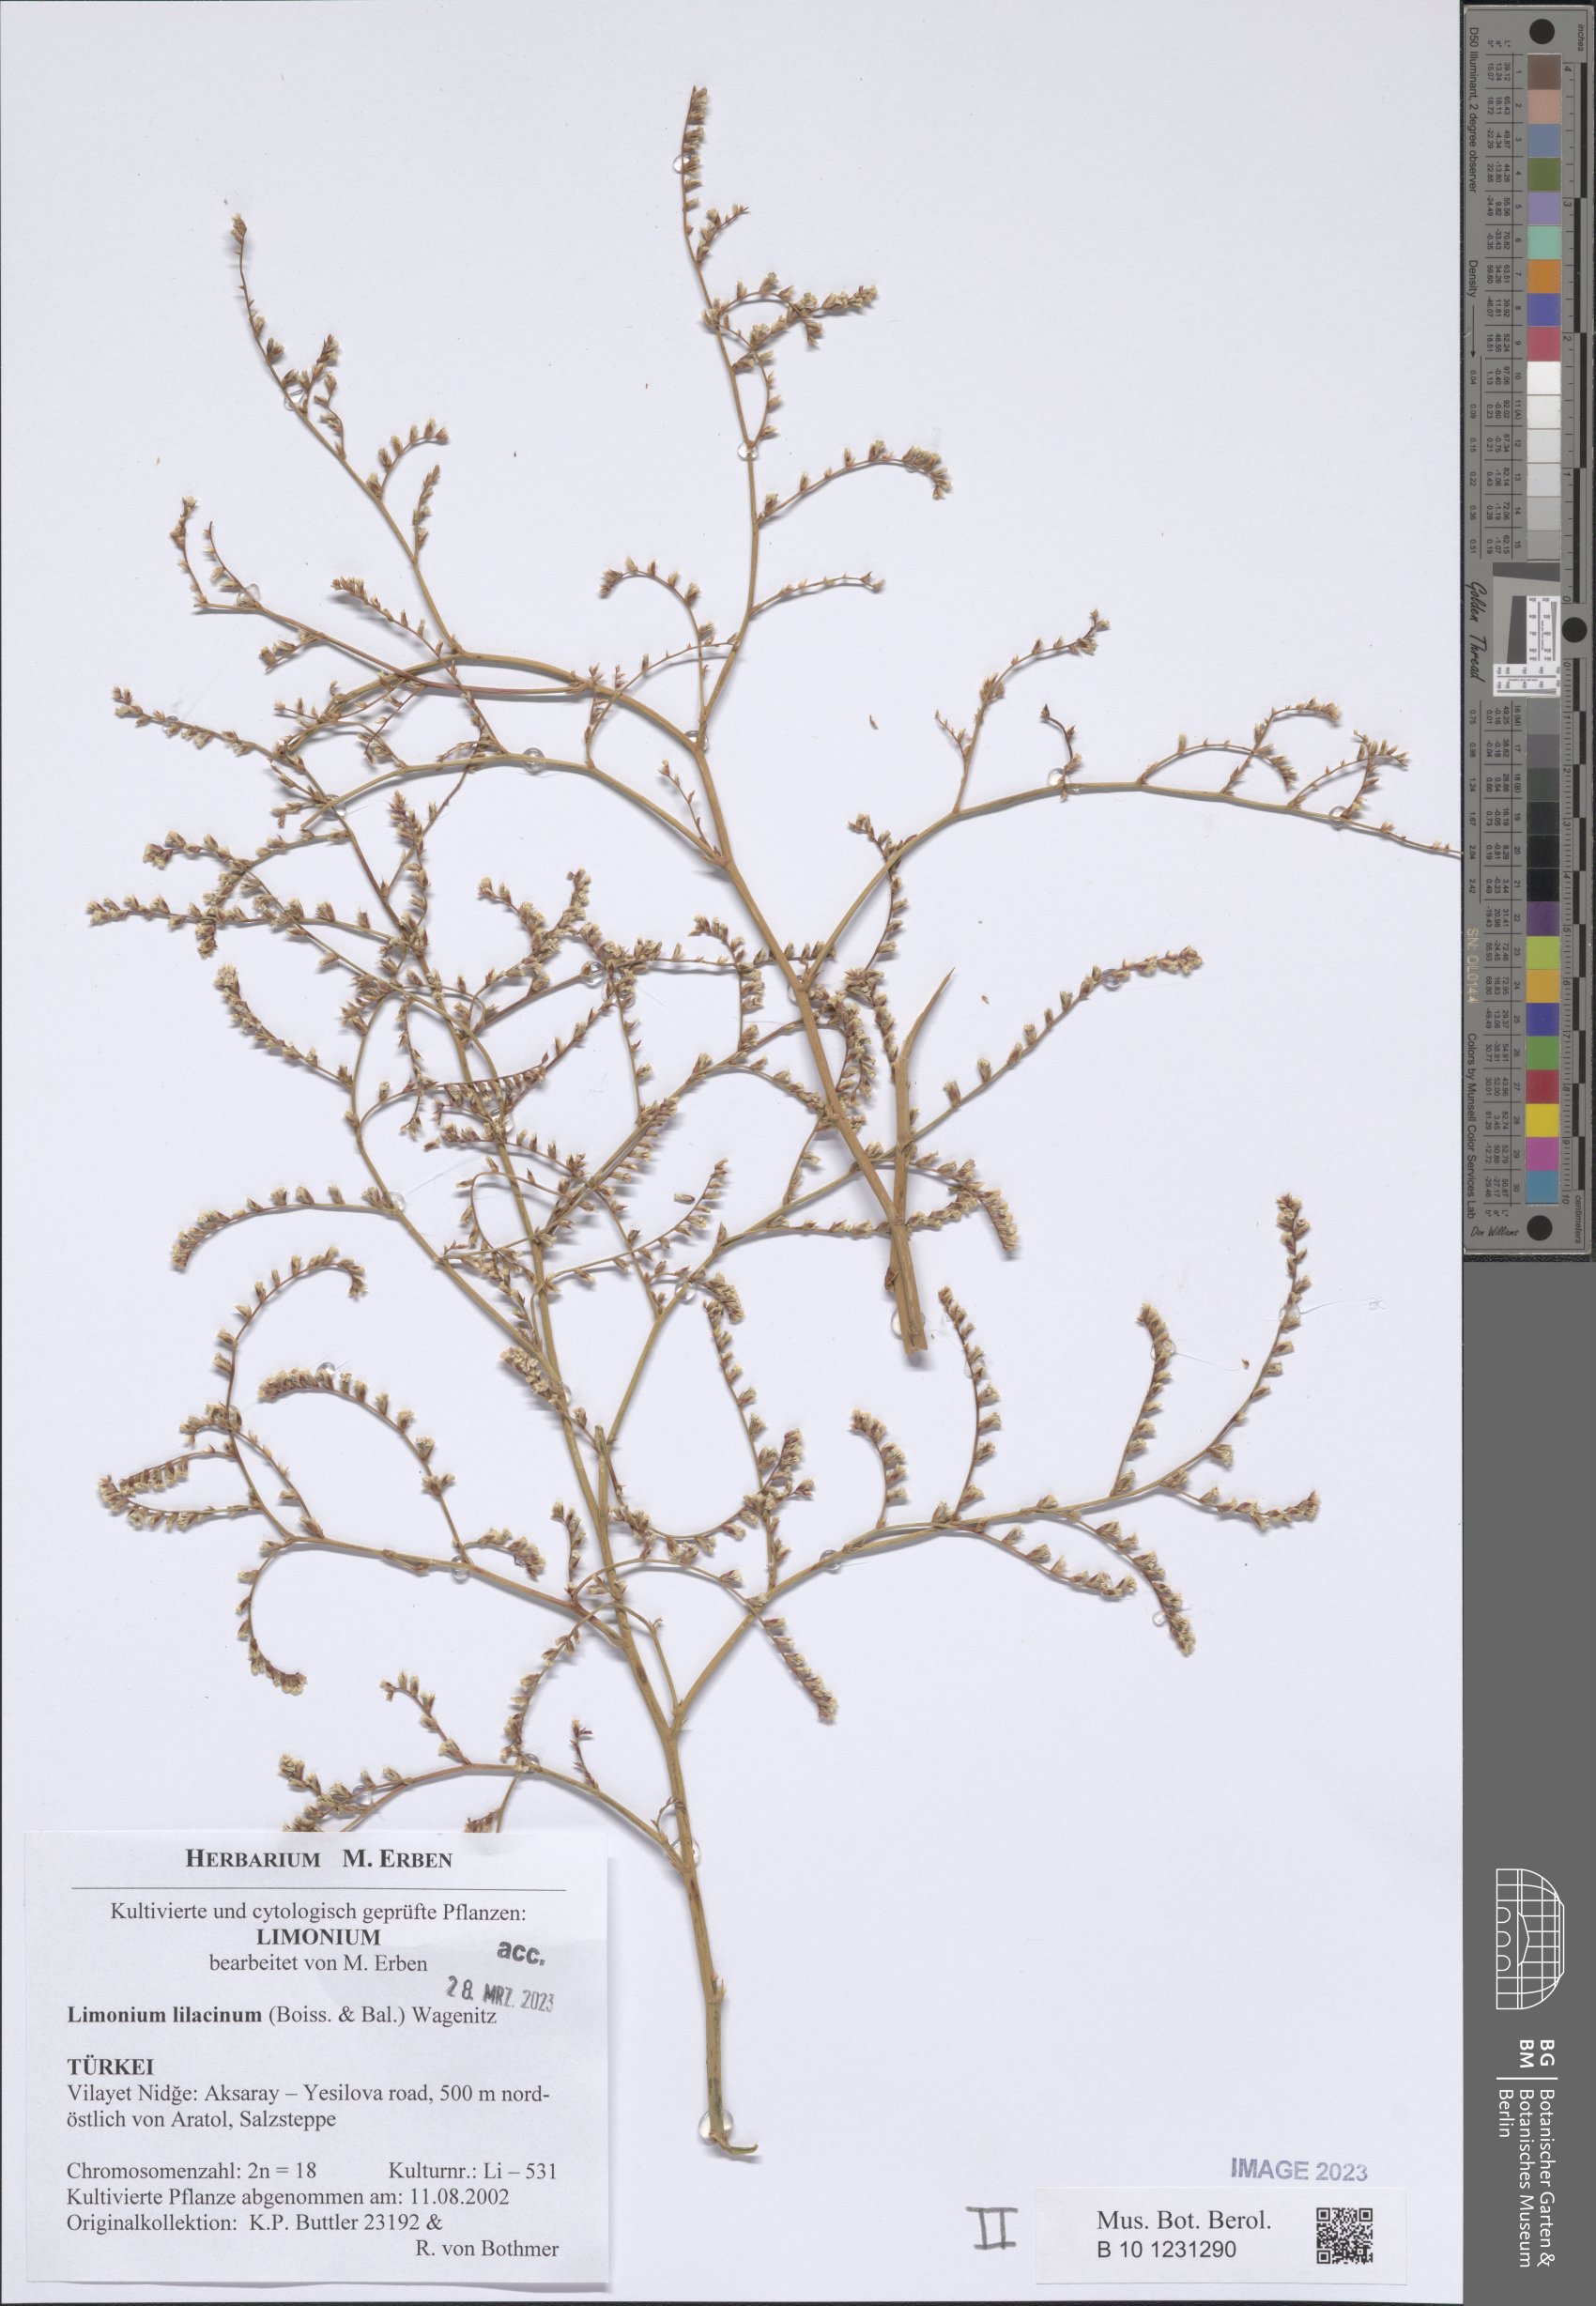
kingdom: Plantae
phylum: Tracheophyta
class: Magnoliopsida
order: Caryophyllales
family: Plumbaginaceae
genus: Limonium
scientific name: Limonium lilacinum
